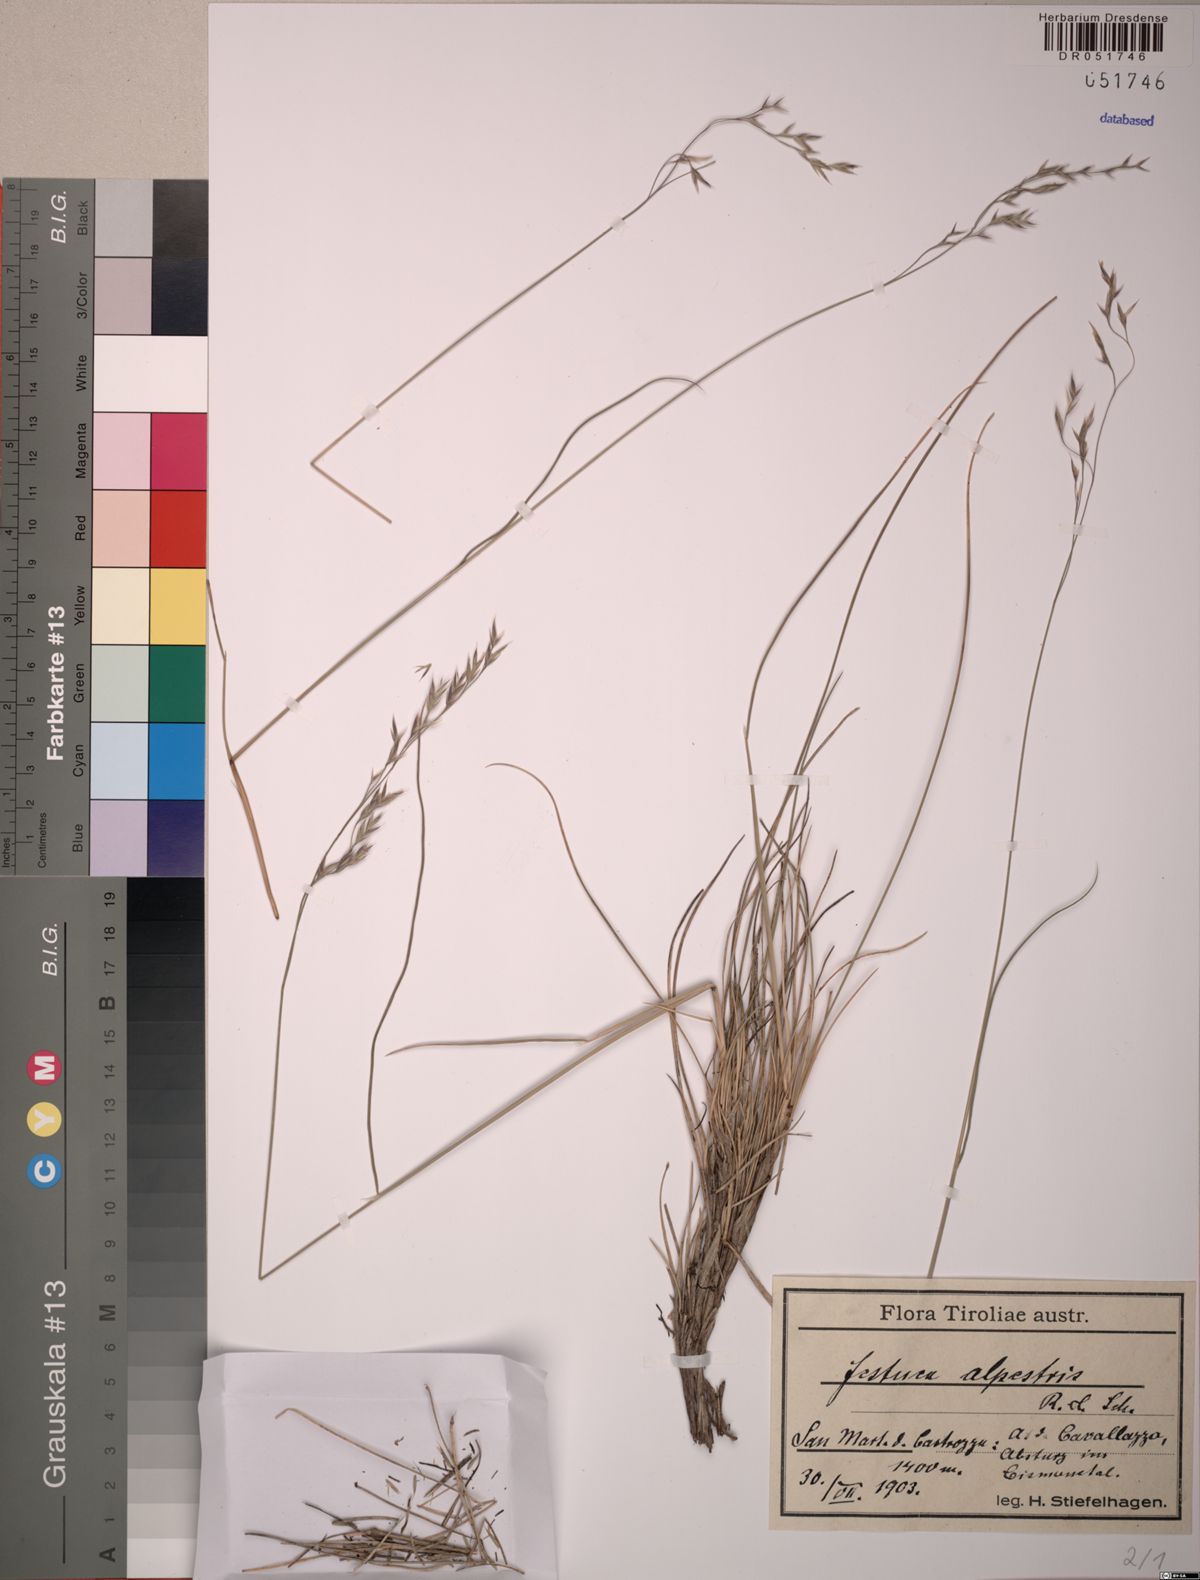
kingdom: Plantae
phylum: Tracheophyta
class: Liliopsida
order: Poales
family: Poaceae
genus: Festuca
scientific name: Festuca alpestris
